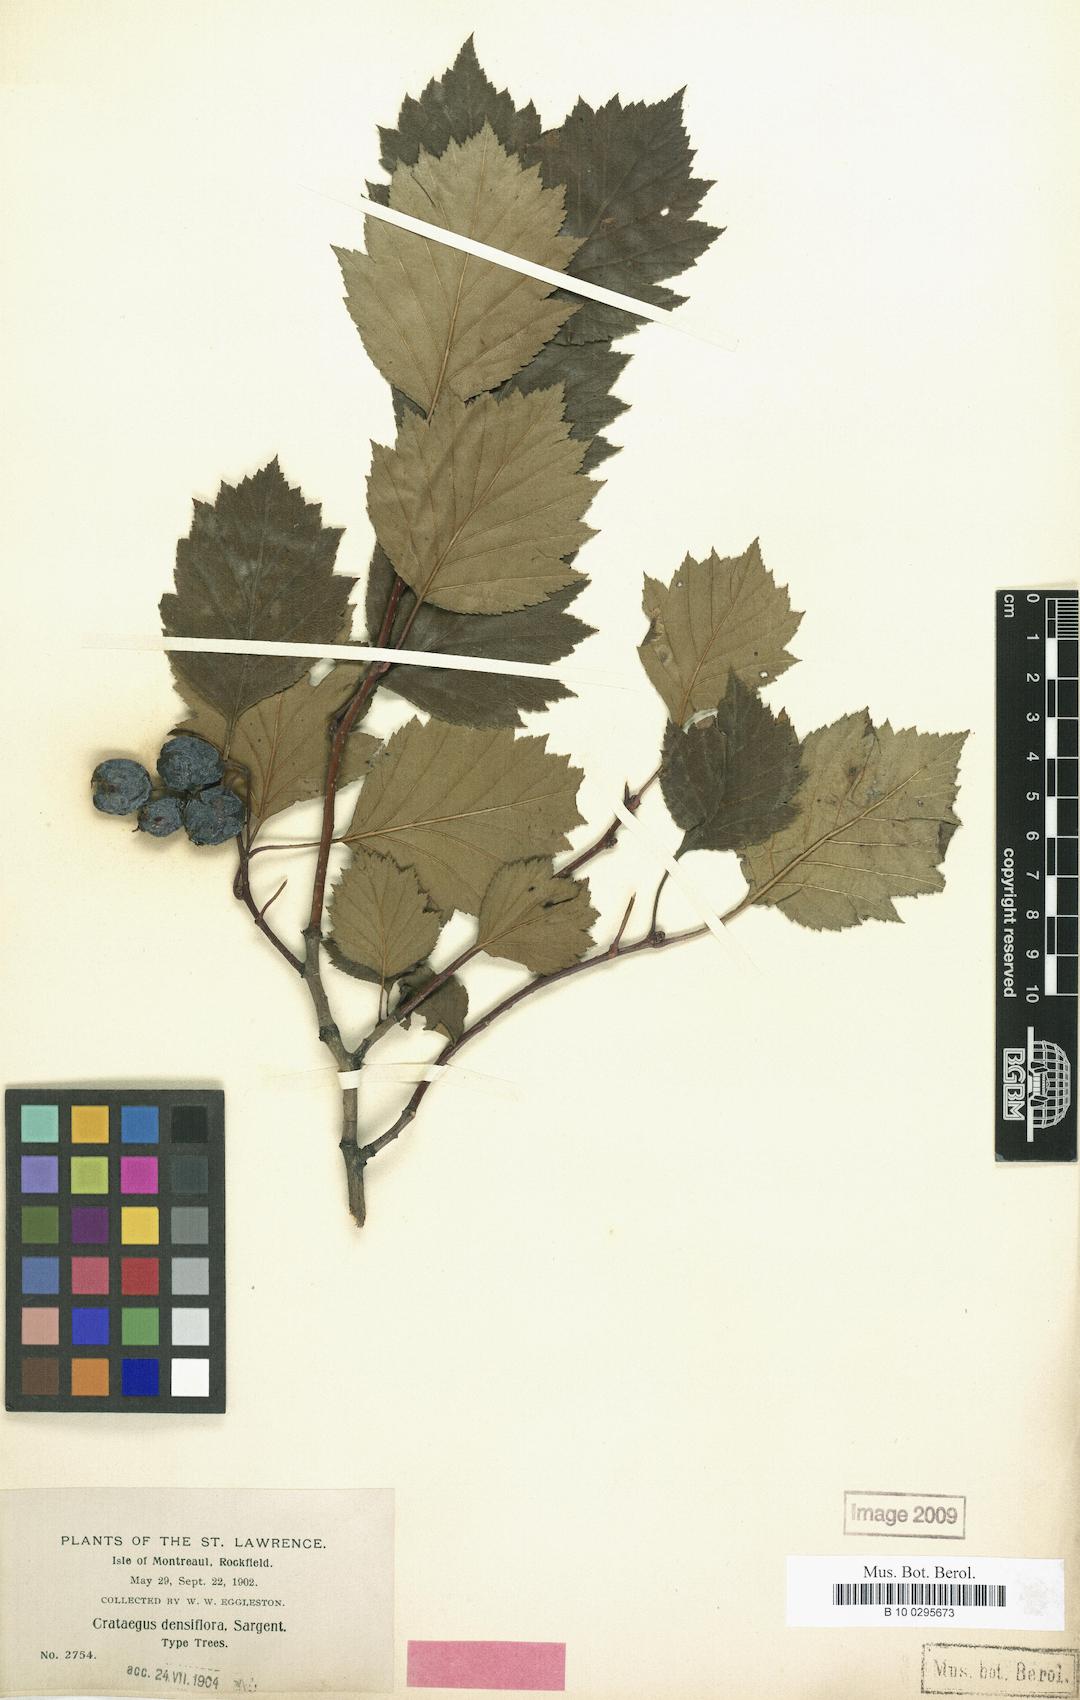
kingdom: Plantae
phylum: Tracheophyta
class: Magnoliopsida
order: Rosales
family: Rosaceae
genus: Crataegus
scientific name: Crataegus flabellata
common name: Bosc's hawthorn
